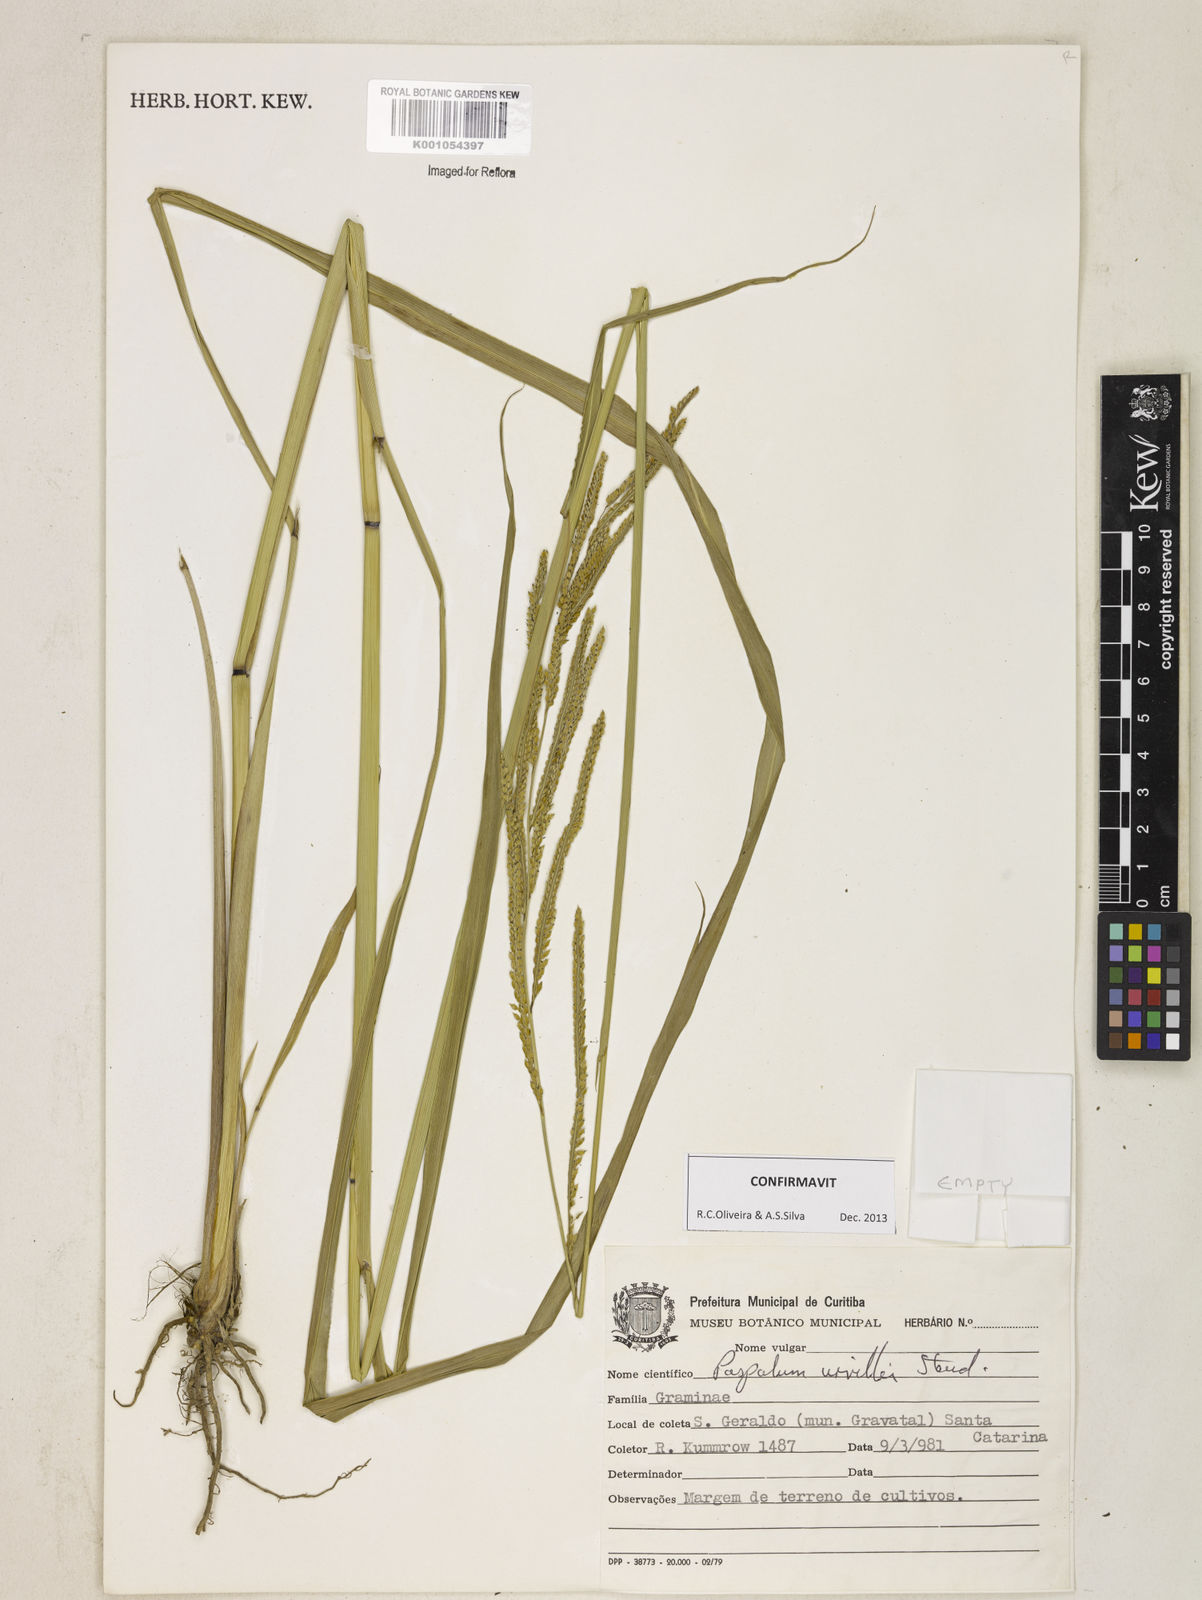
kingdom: Plantae
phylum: Tracheophyta
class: Liliopsida
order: Poales
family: Poaceae
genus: Paspalum
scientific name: Paspalum urvillei
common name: Vasey's grass
